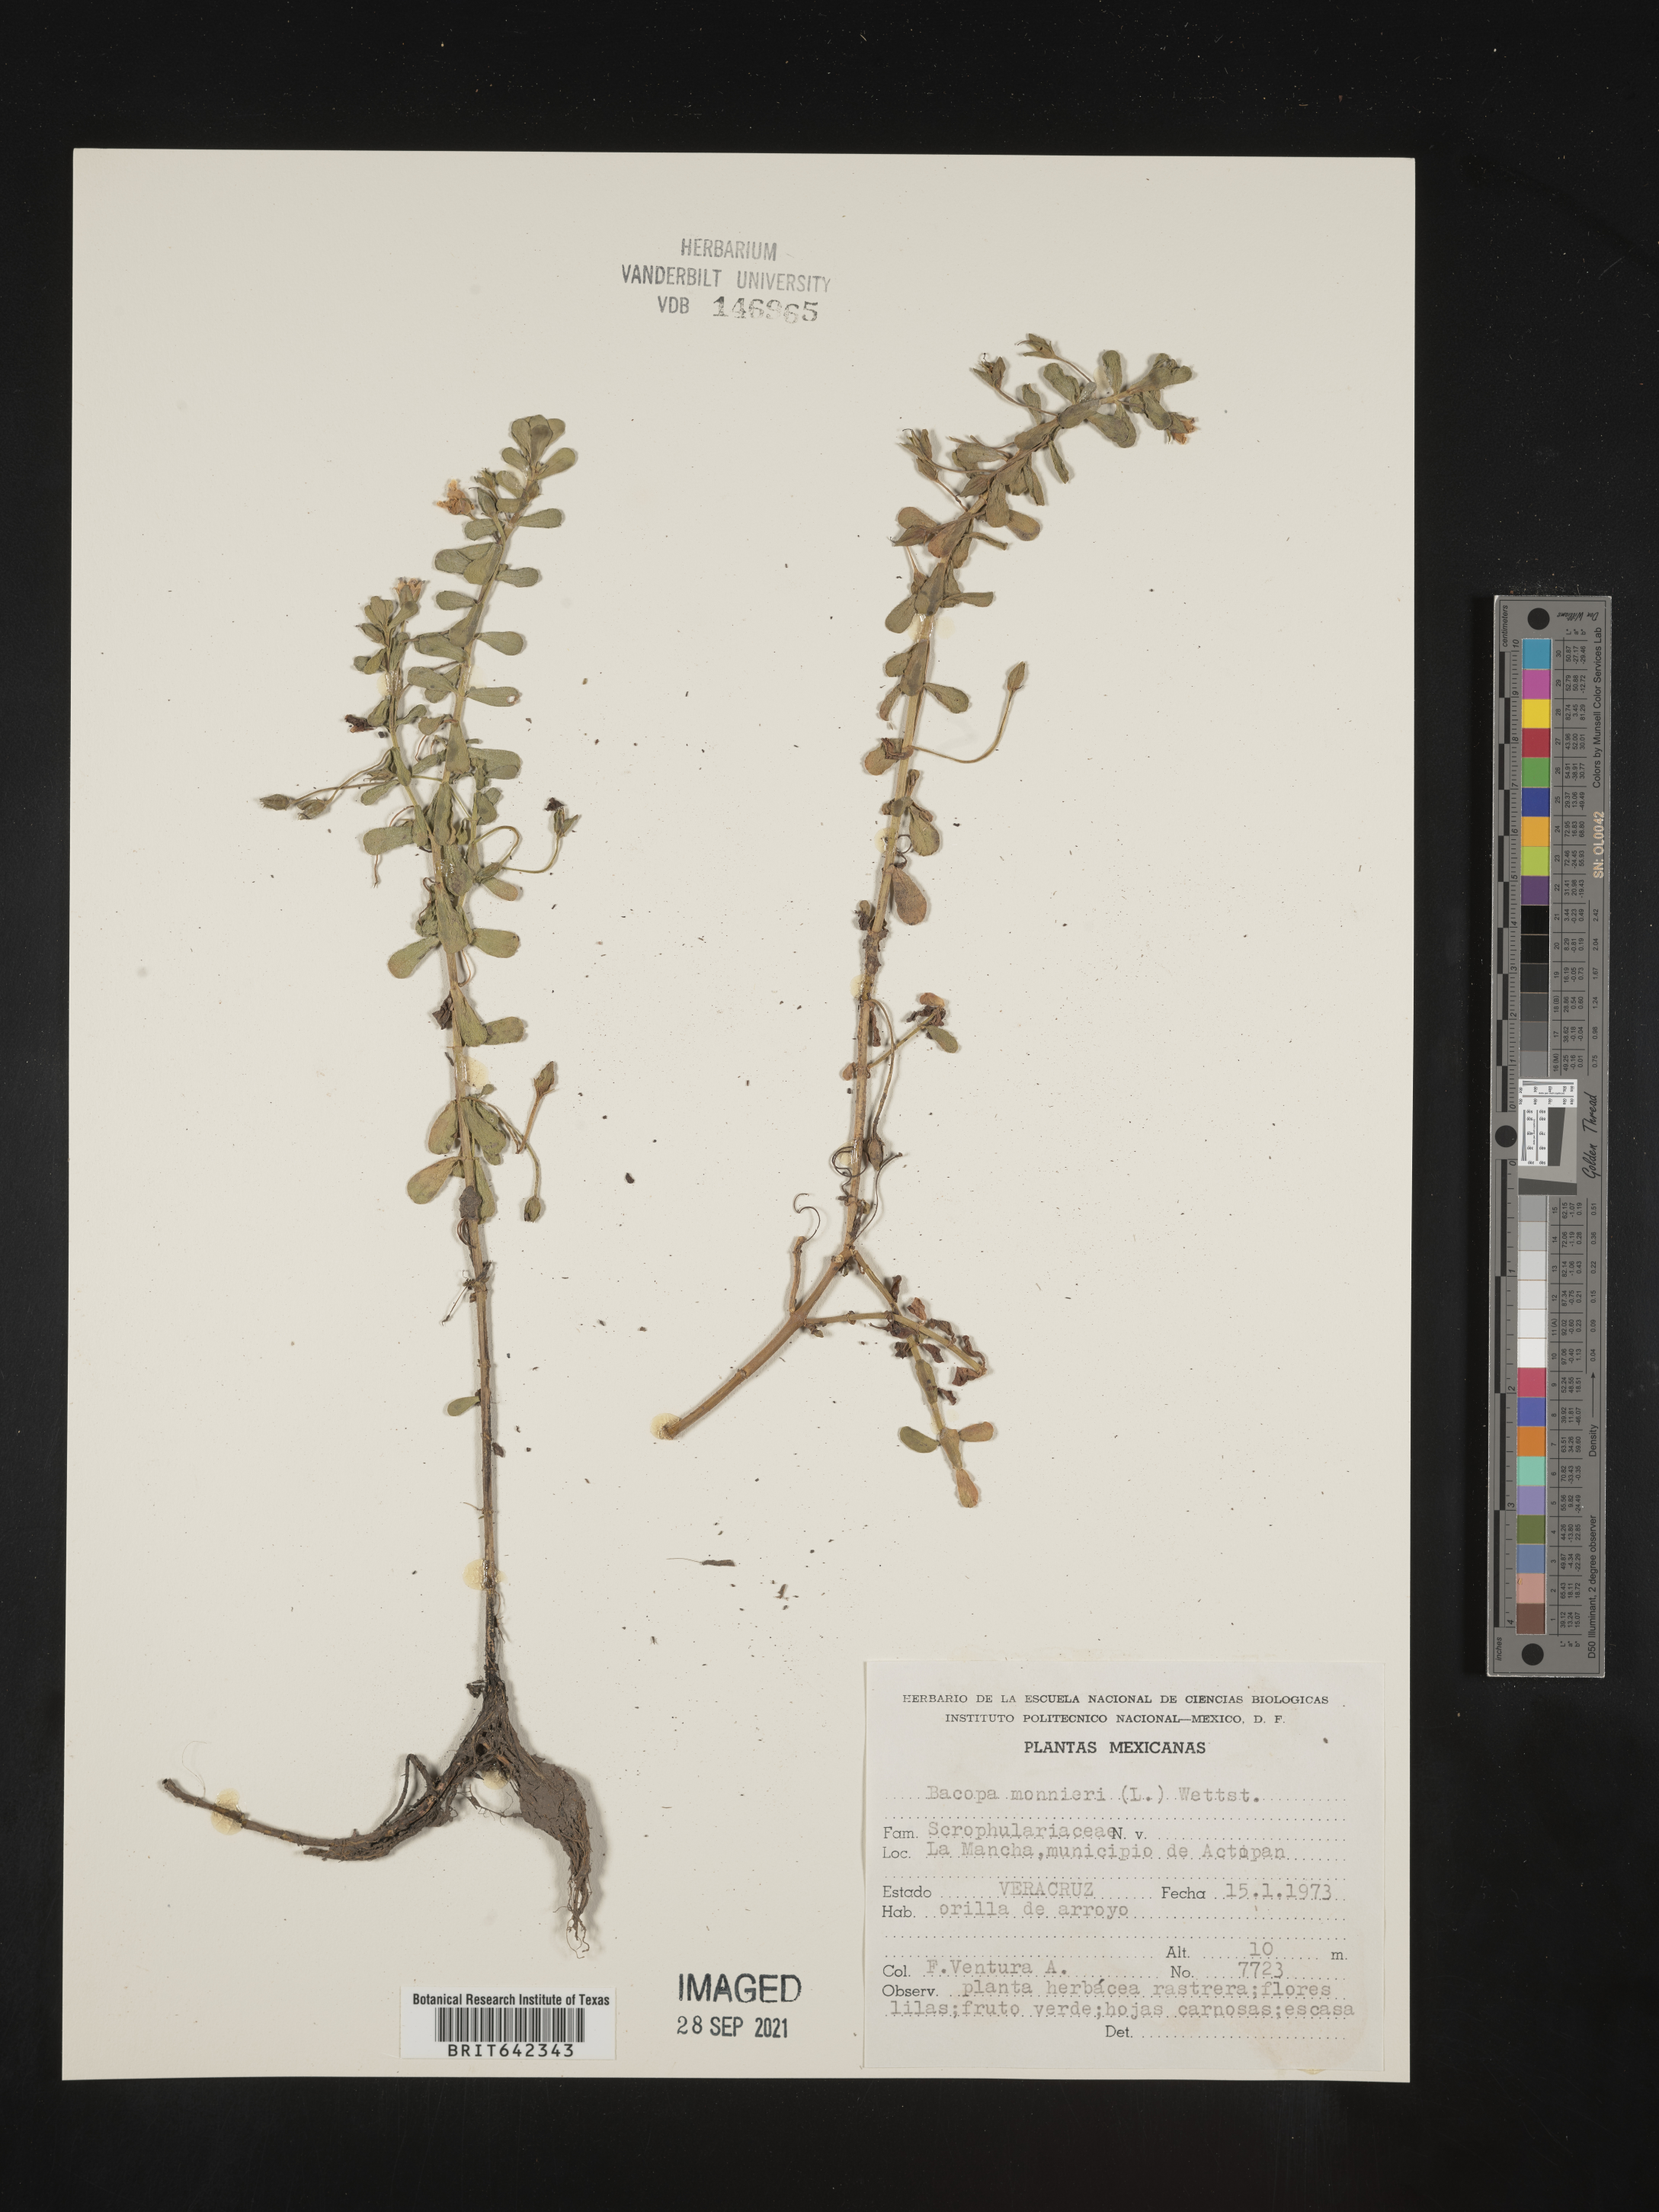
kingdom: Plantae
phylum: Tracheophyta
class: Magnoliopsida
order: Lamiales
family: Plantaginaceae
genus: Bacopa
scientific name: Bacopa
